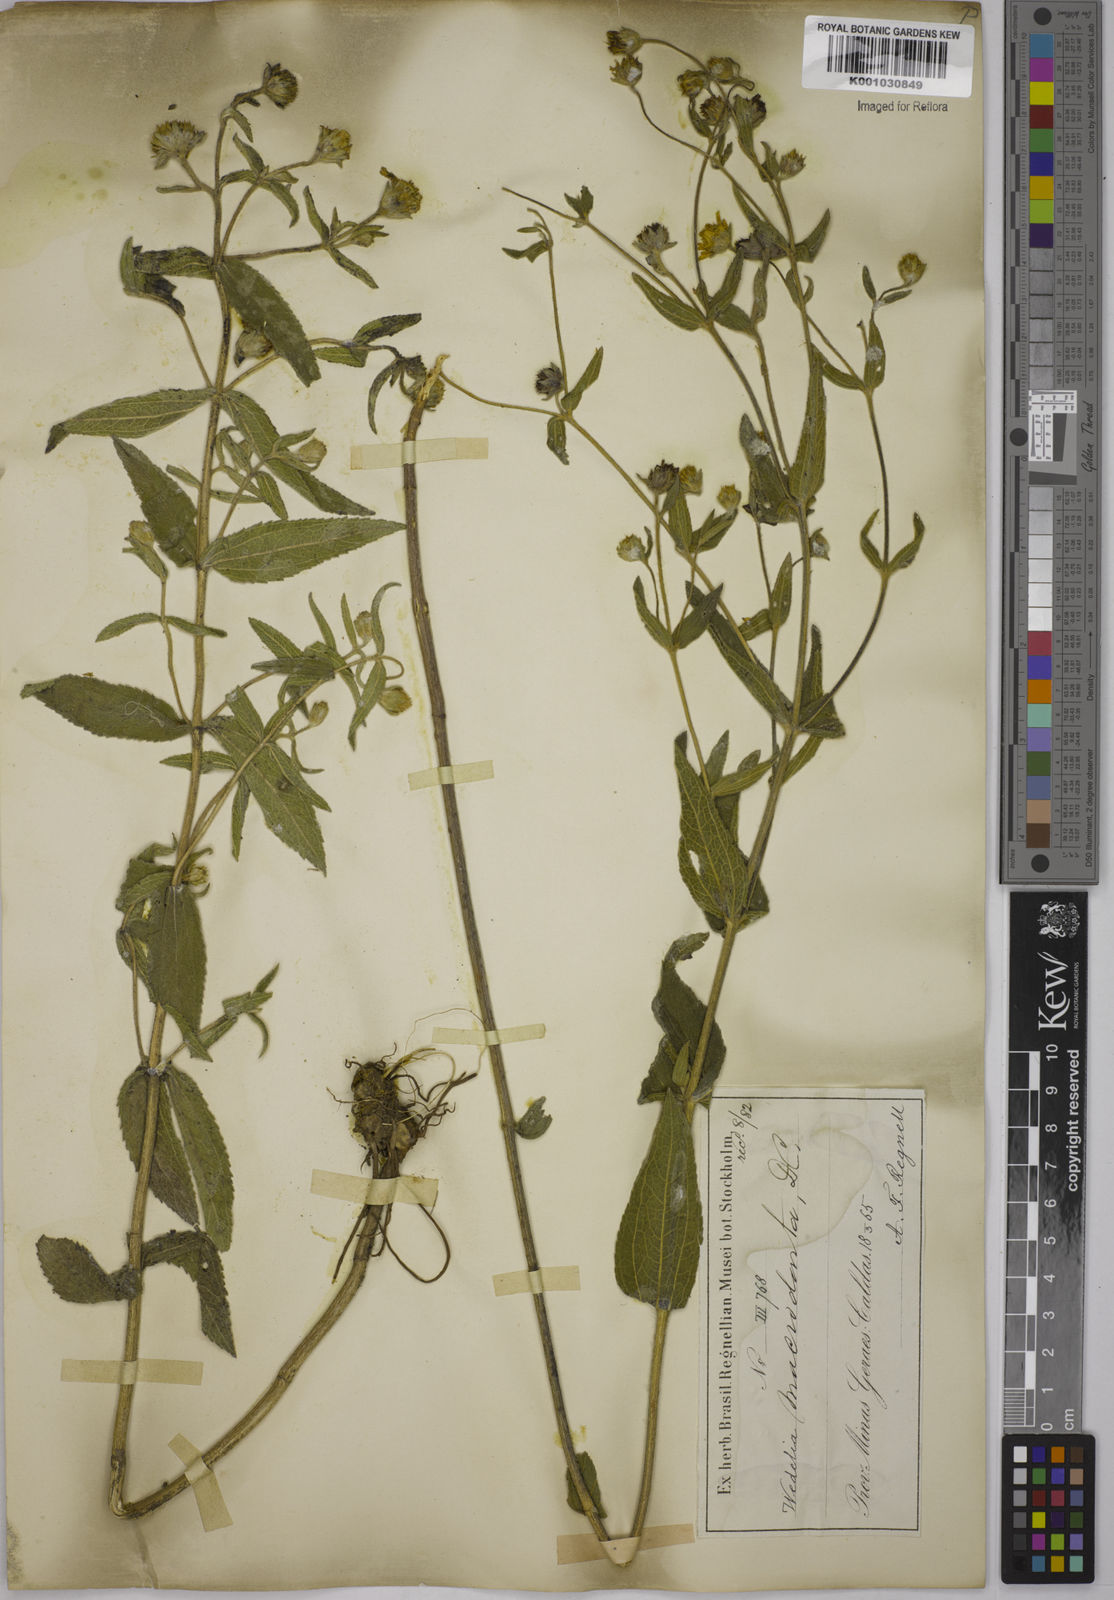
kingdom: Plantae
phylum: Tracheophyta
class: Magnoliopsida
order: Asterales
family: Asteraceae
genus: Wedelia
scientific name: Wedelia macrodonta
